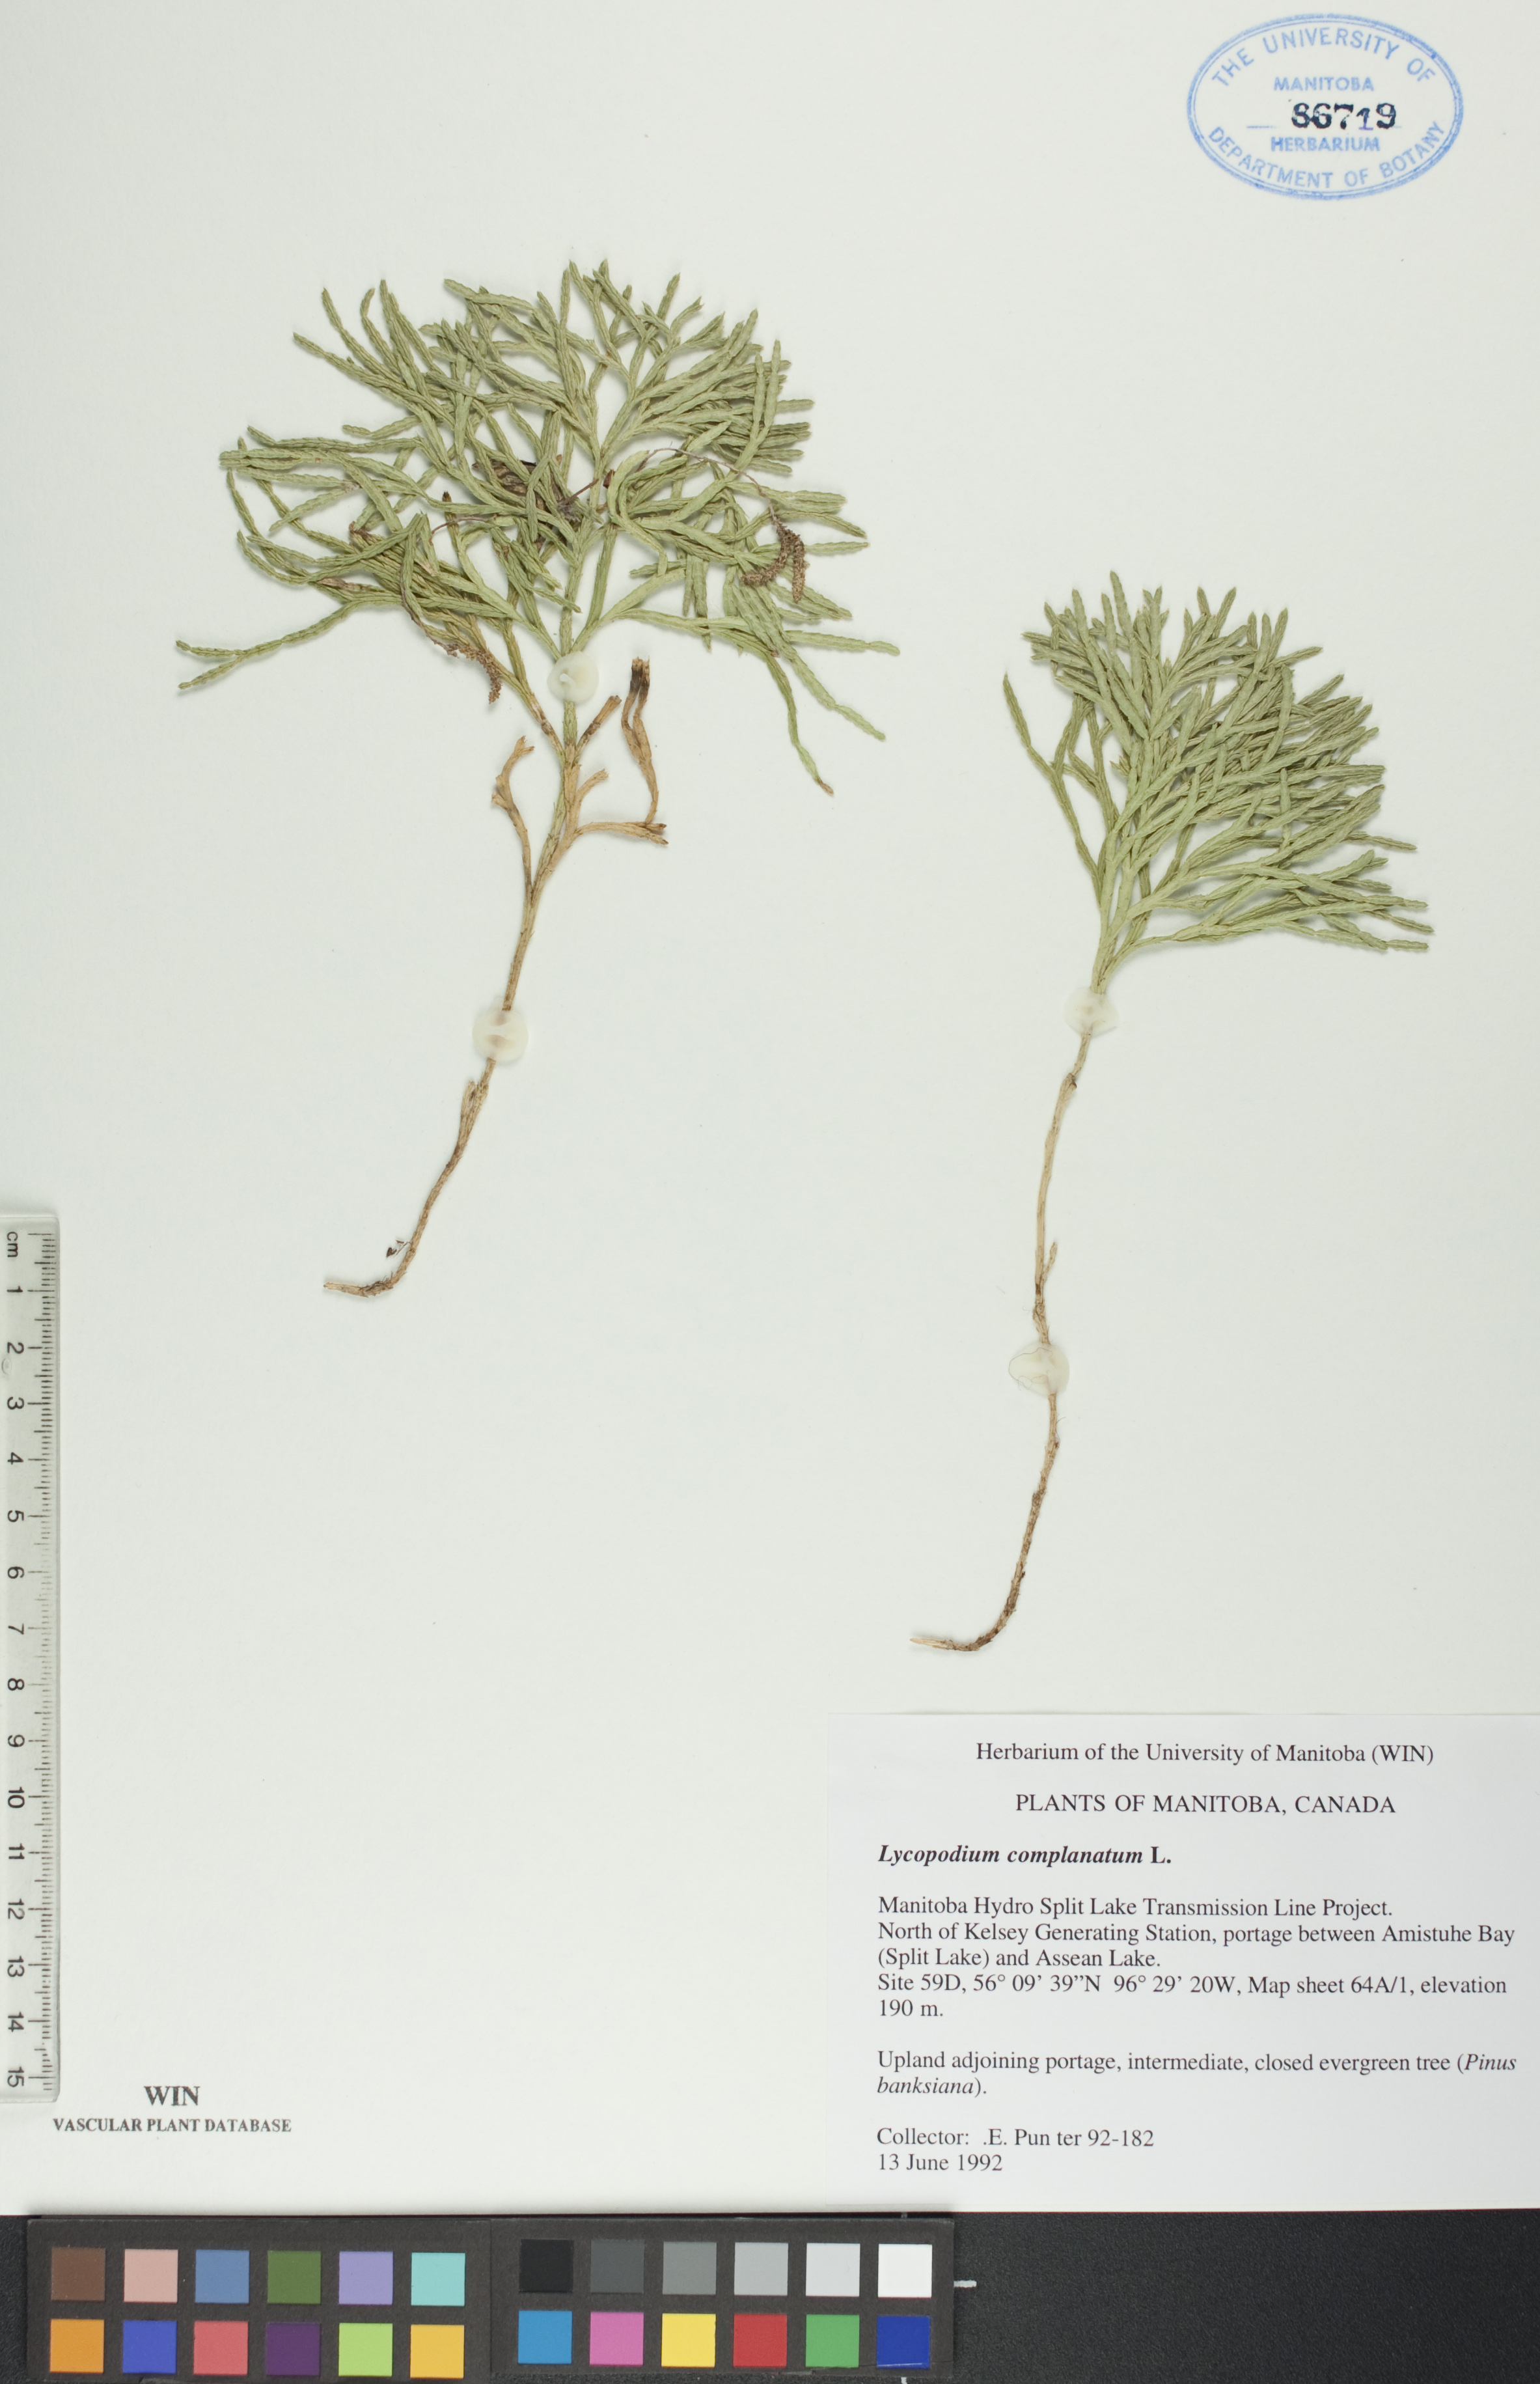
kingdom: Plantae
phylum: Tracheophyta
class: Lycopodiopsida
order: Lycopodiales
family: Lycopodiaceae
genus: Diphasiastrum
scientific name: Diphasiastrum
